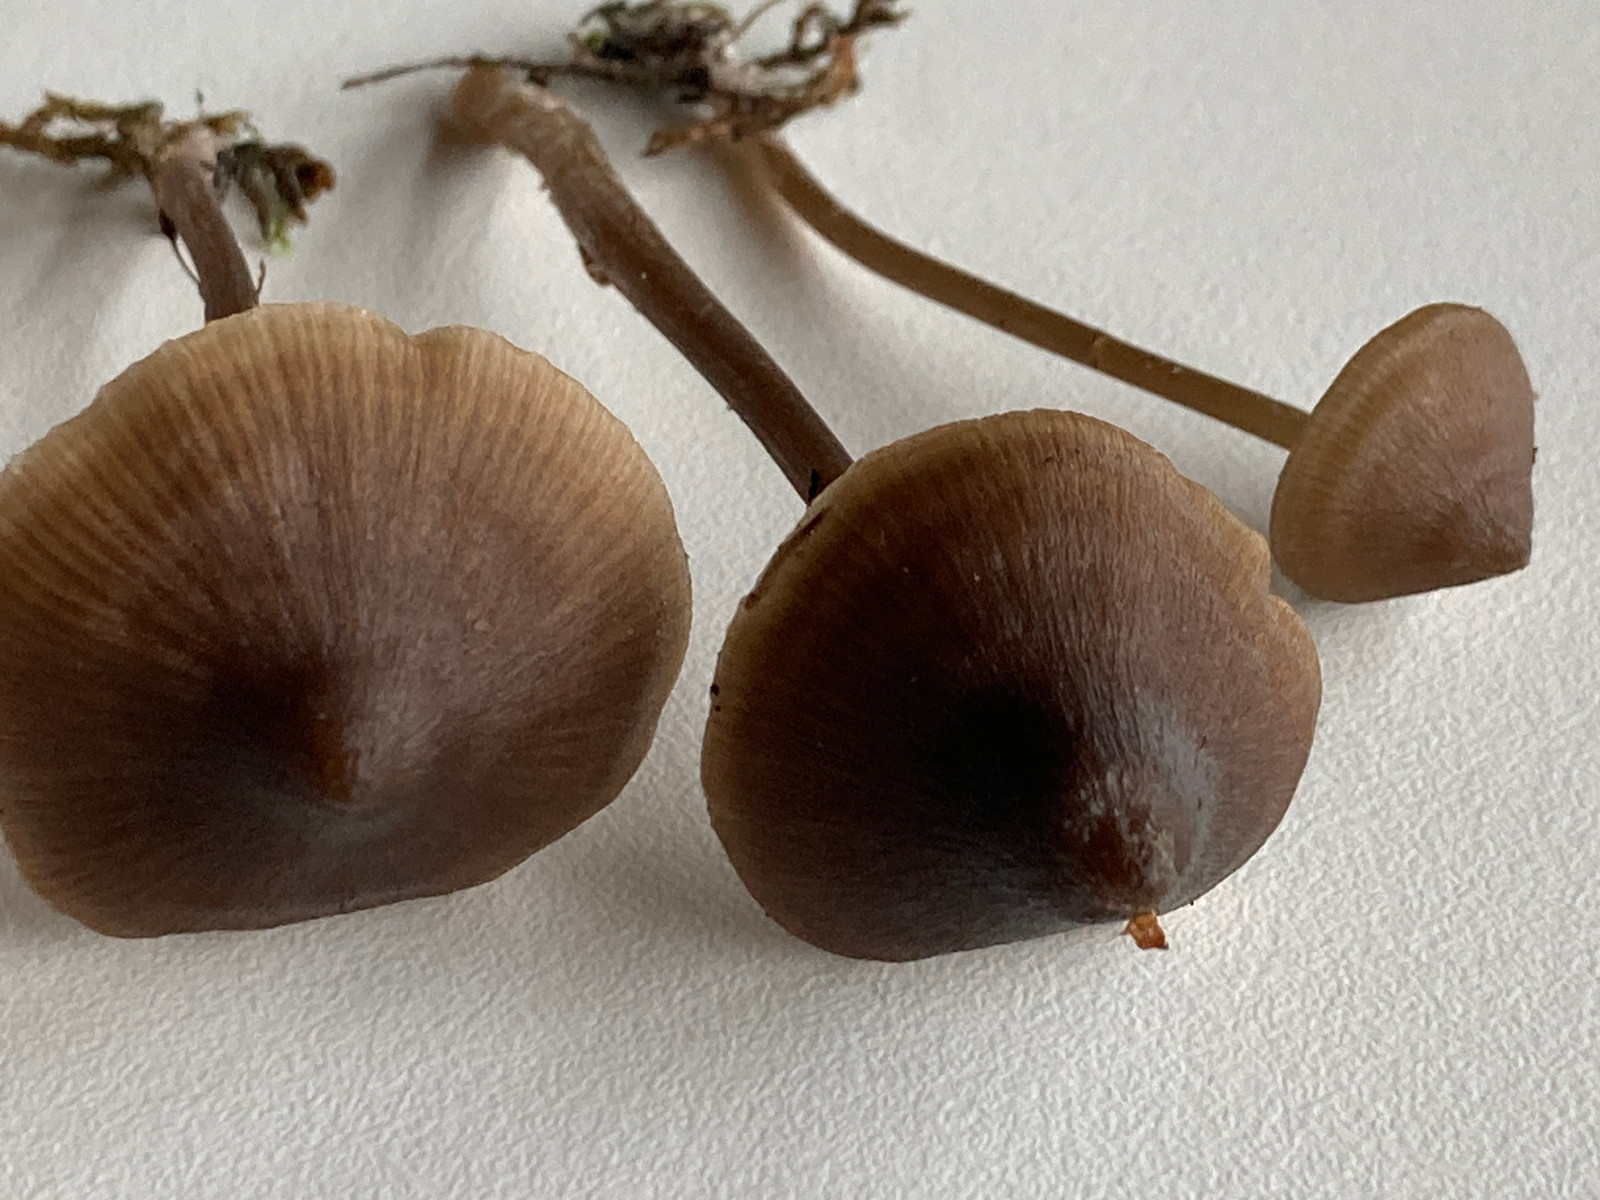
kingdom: Fungi
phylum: Basidiomycota
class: Agaricomycetes
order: Agaricales
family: Entolomataceae
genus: Entoloma
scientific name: Entoloma
